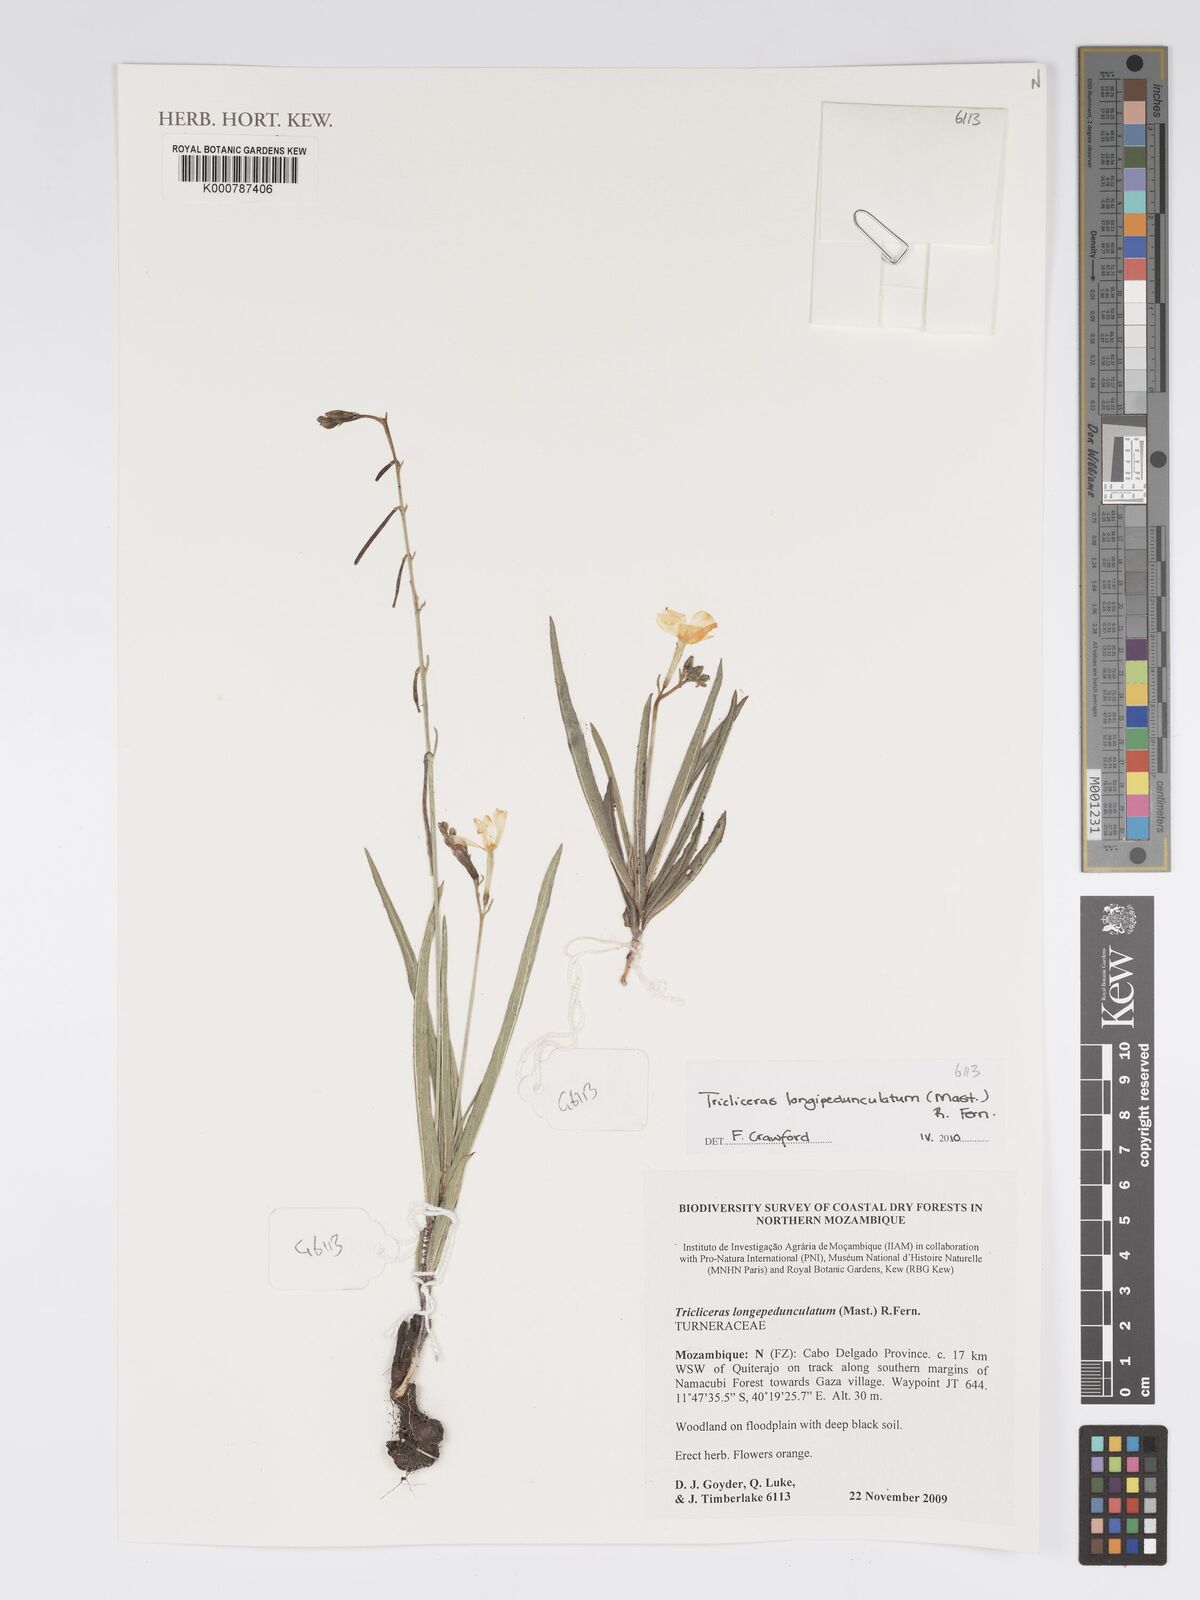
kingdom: Plantae
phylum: Tracheophyta
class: Magnoliopsida
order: Malpighiales
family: Turneraceae
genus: Tricliceras
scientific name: Tricliceras longepedunculatum
